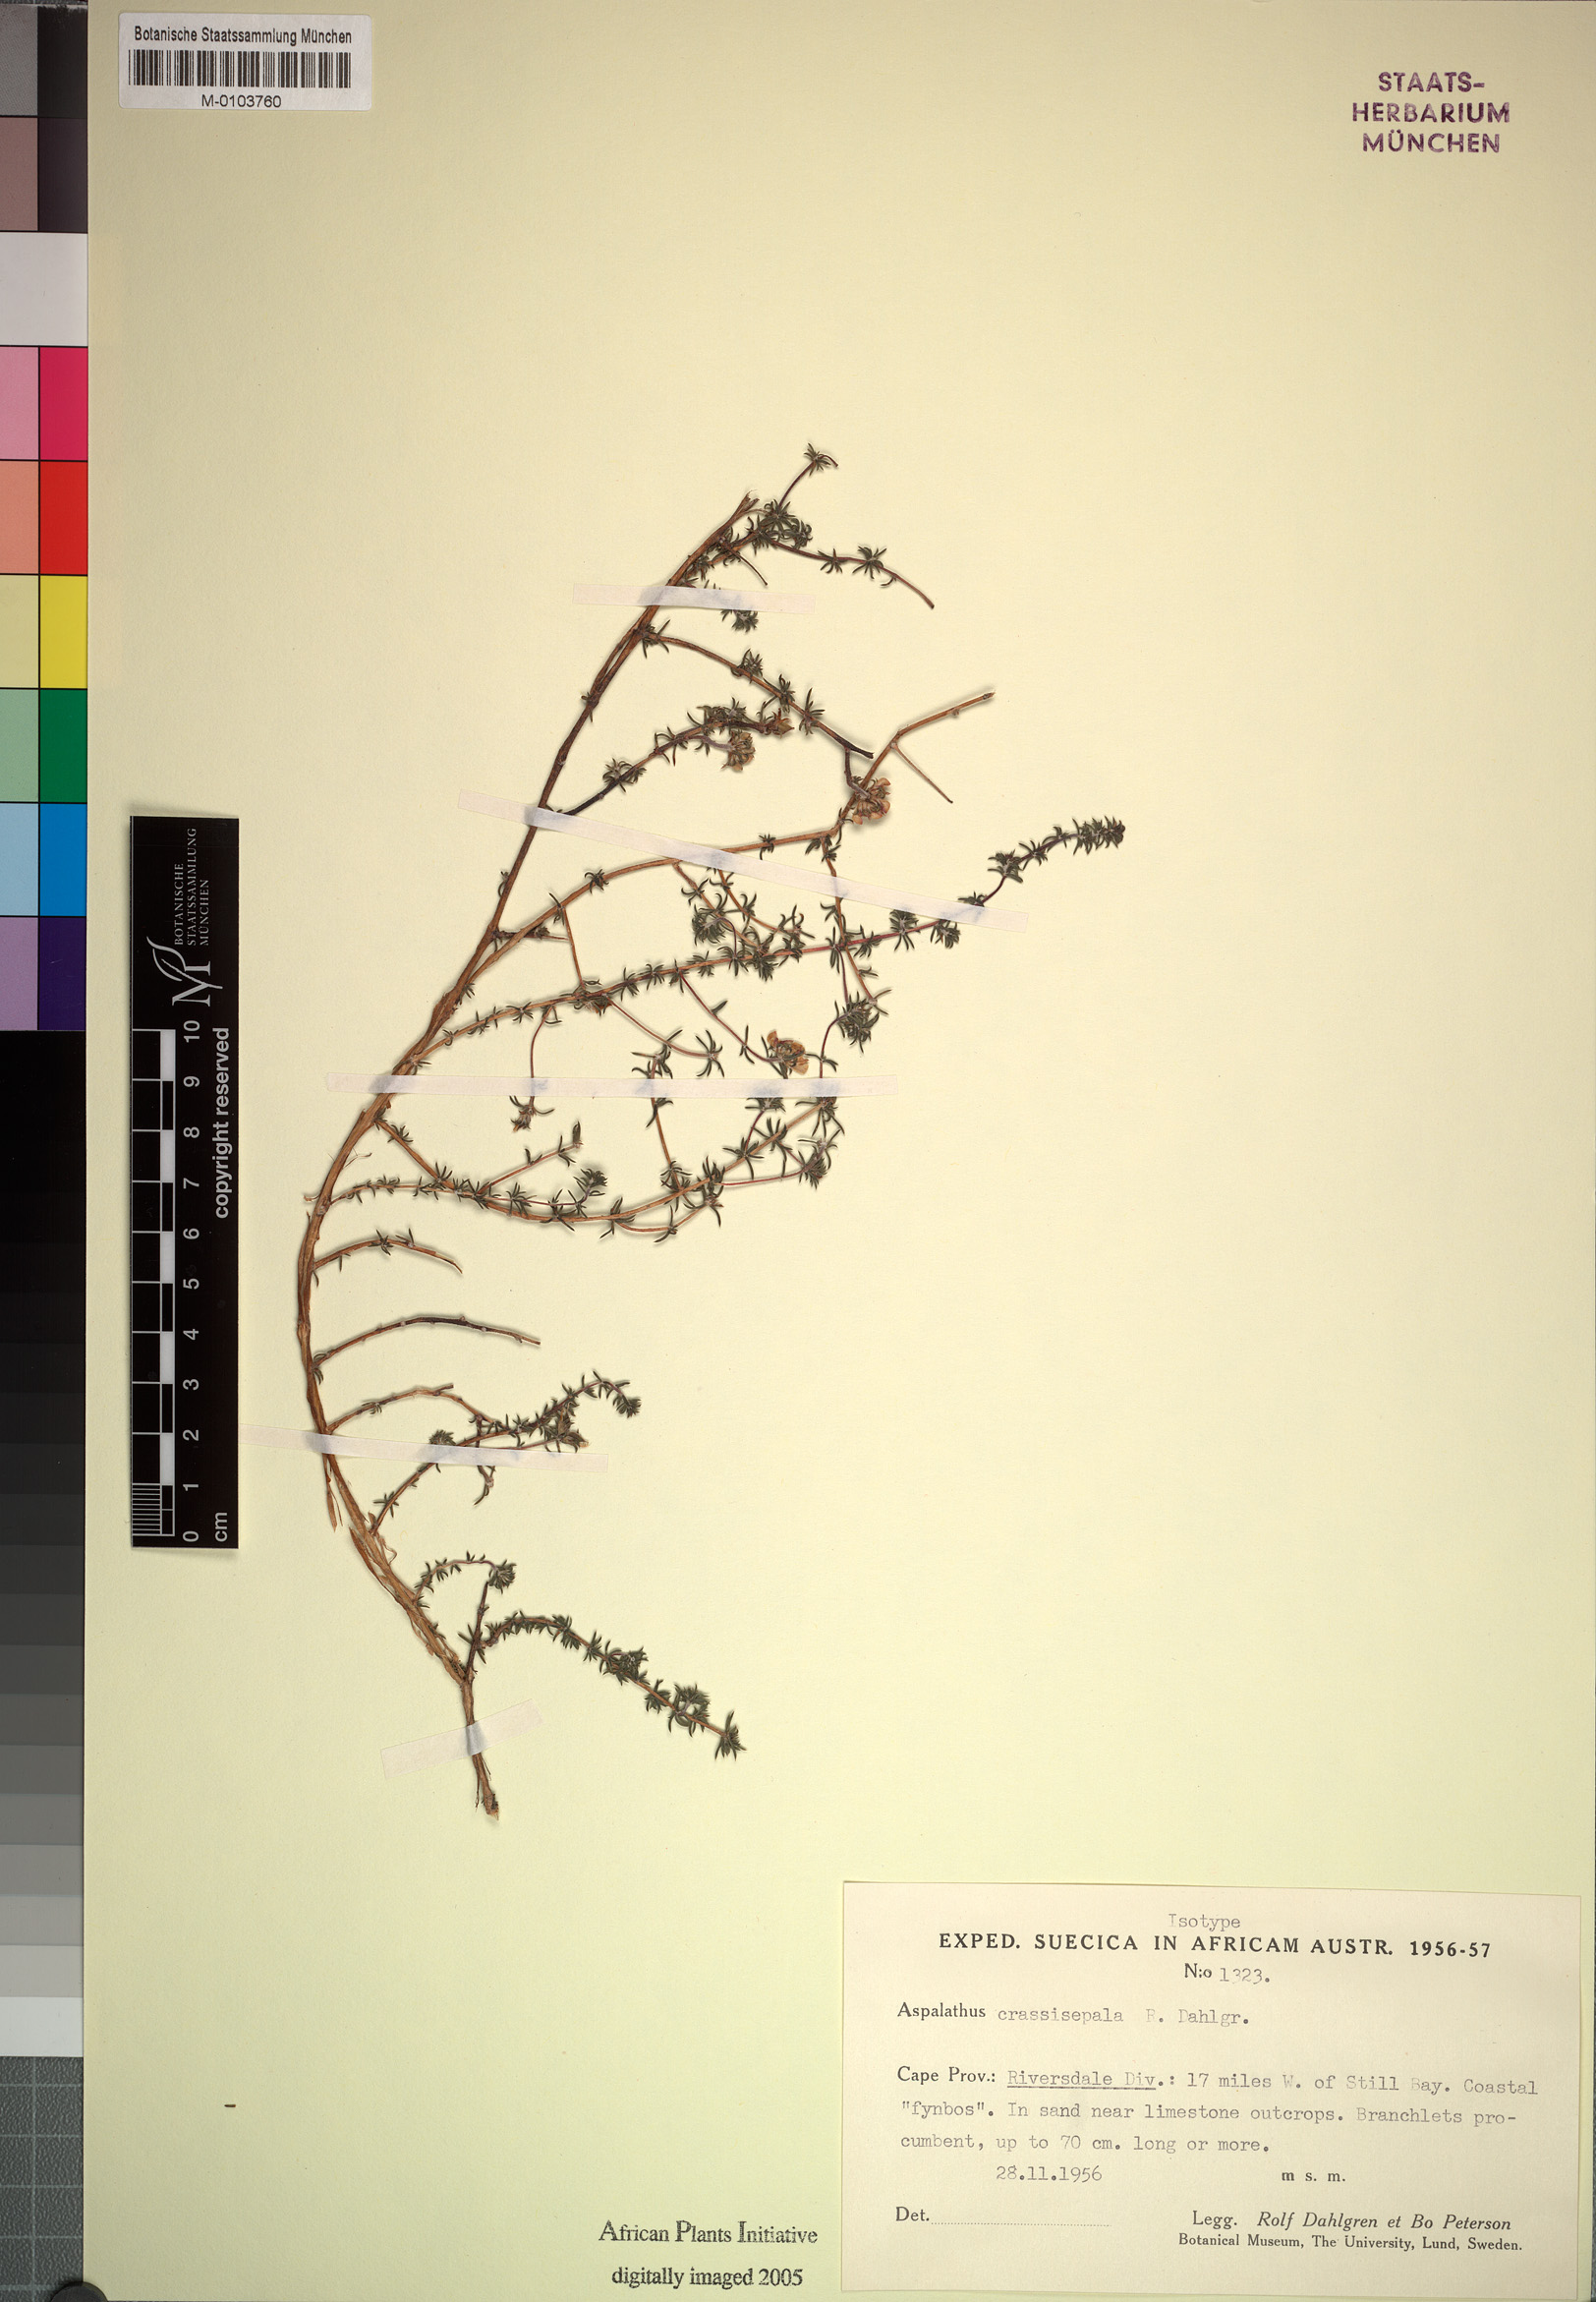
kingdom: Plantae
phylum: Tracheophyta
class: Magnoliopsida
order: Fabales
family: Fabaceae
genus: Aspalathus
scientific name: Aspalathus crassisepala
